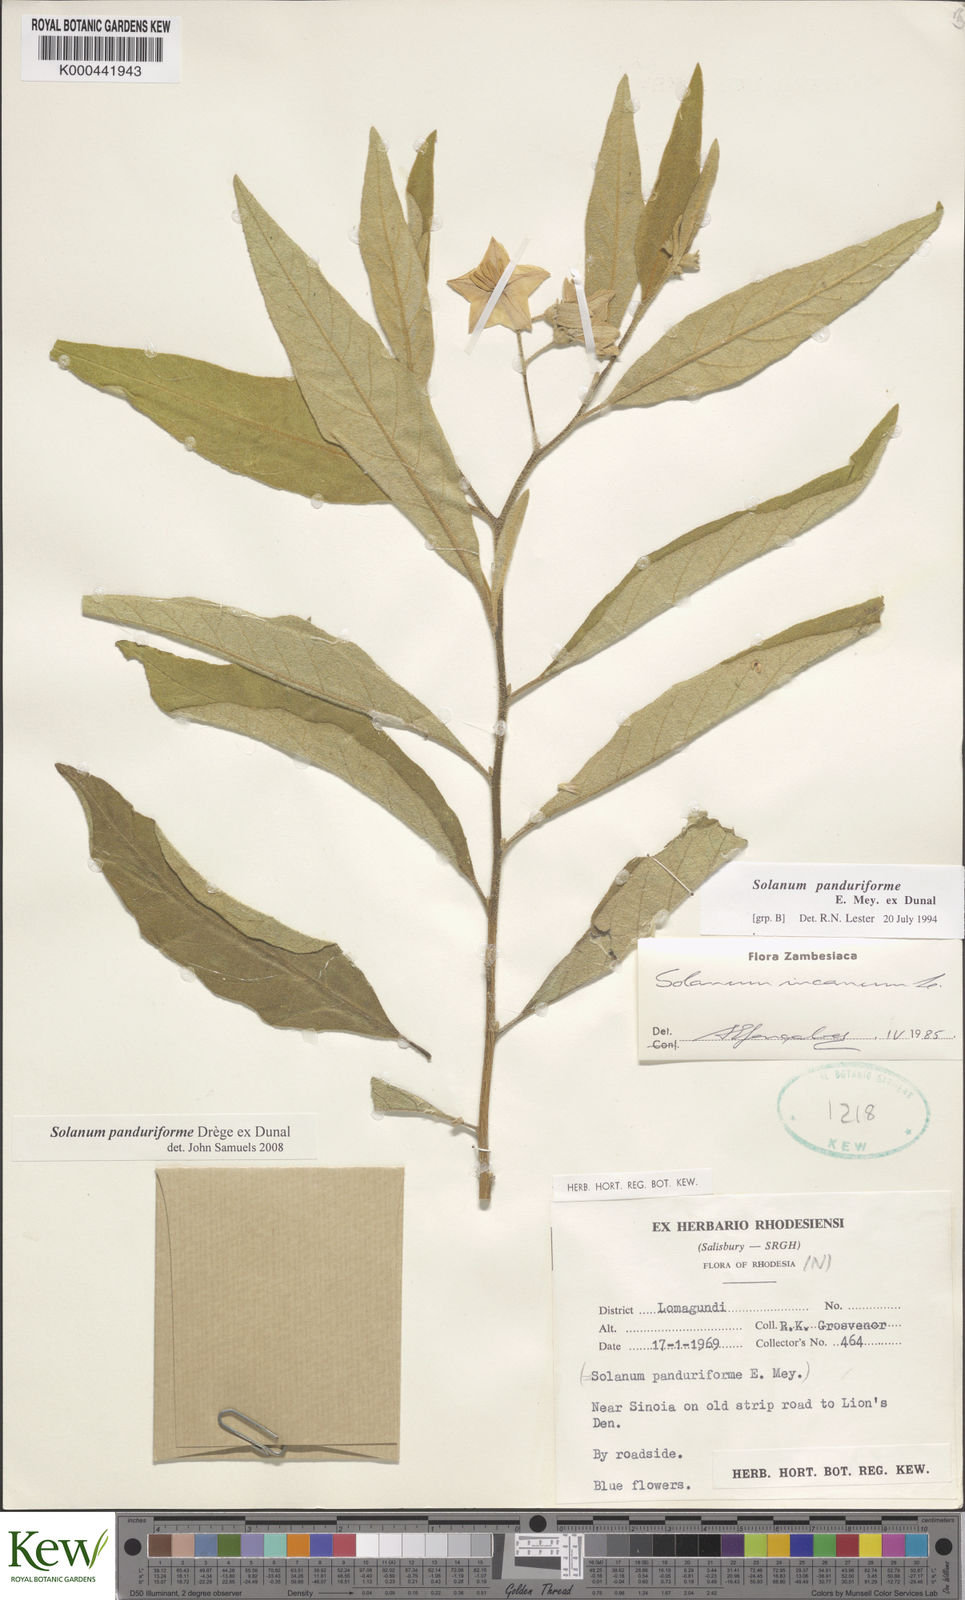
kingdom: Plantae
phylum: Tracheophyta
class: Magnoliopsida
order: Solanales
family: Solanaceae
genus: Solanum
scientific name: Solanum campylacanthum
